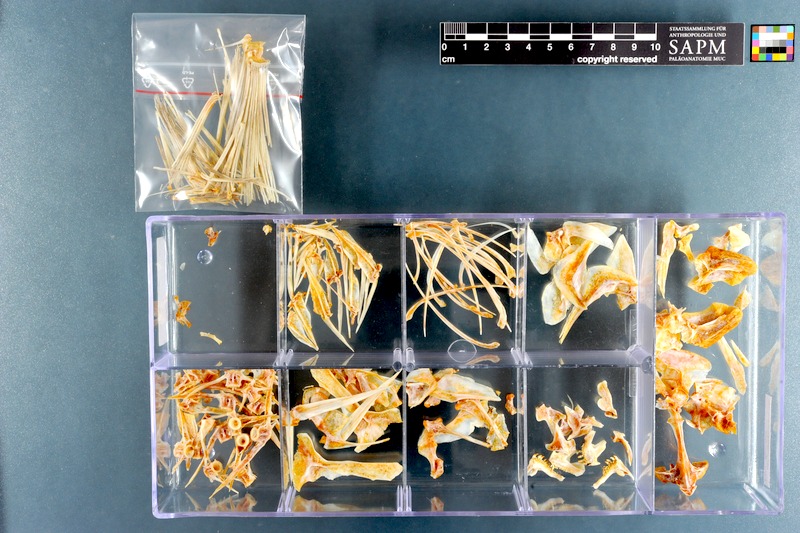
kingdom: Animalia
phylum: Chordata
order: Perciformes
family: Sparidae
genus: Pachymetopon
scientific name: Pachymetopon grande
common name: Bronze bream
